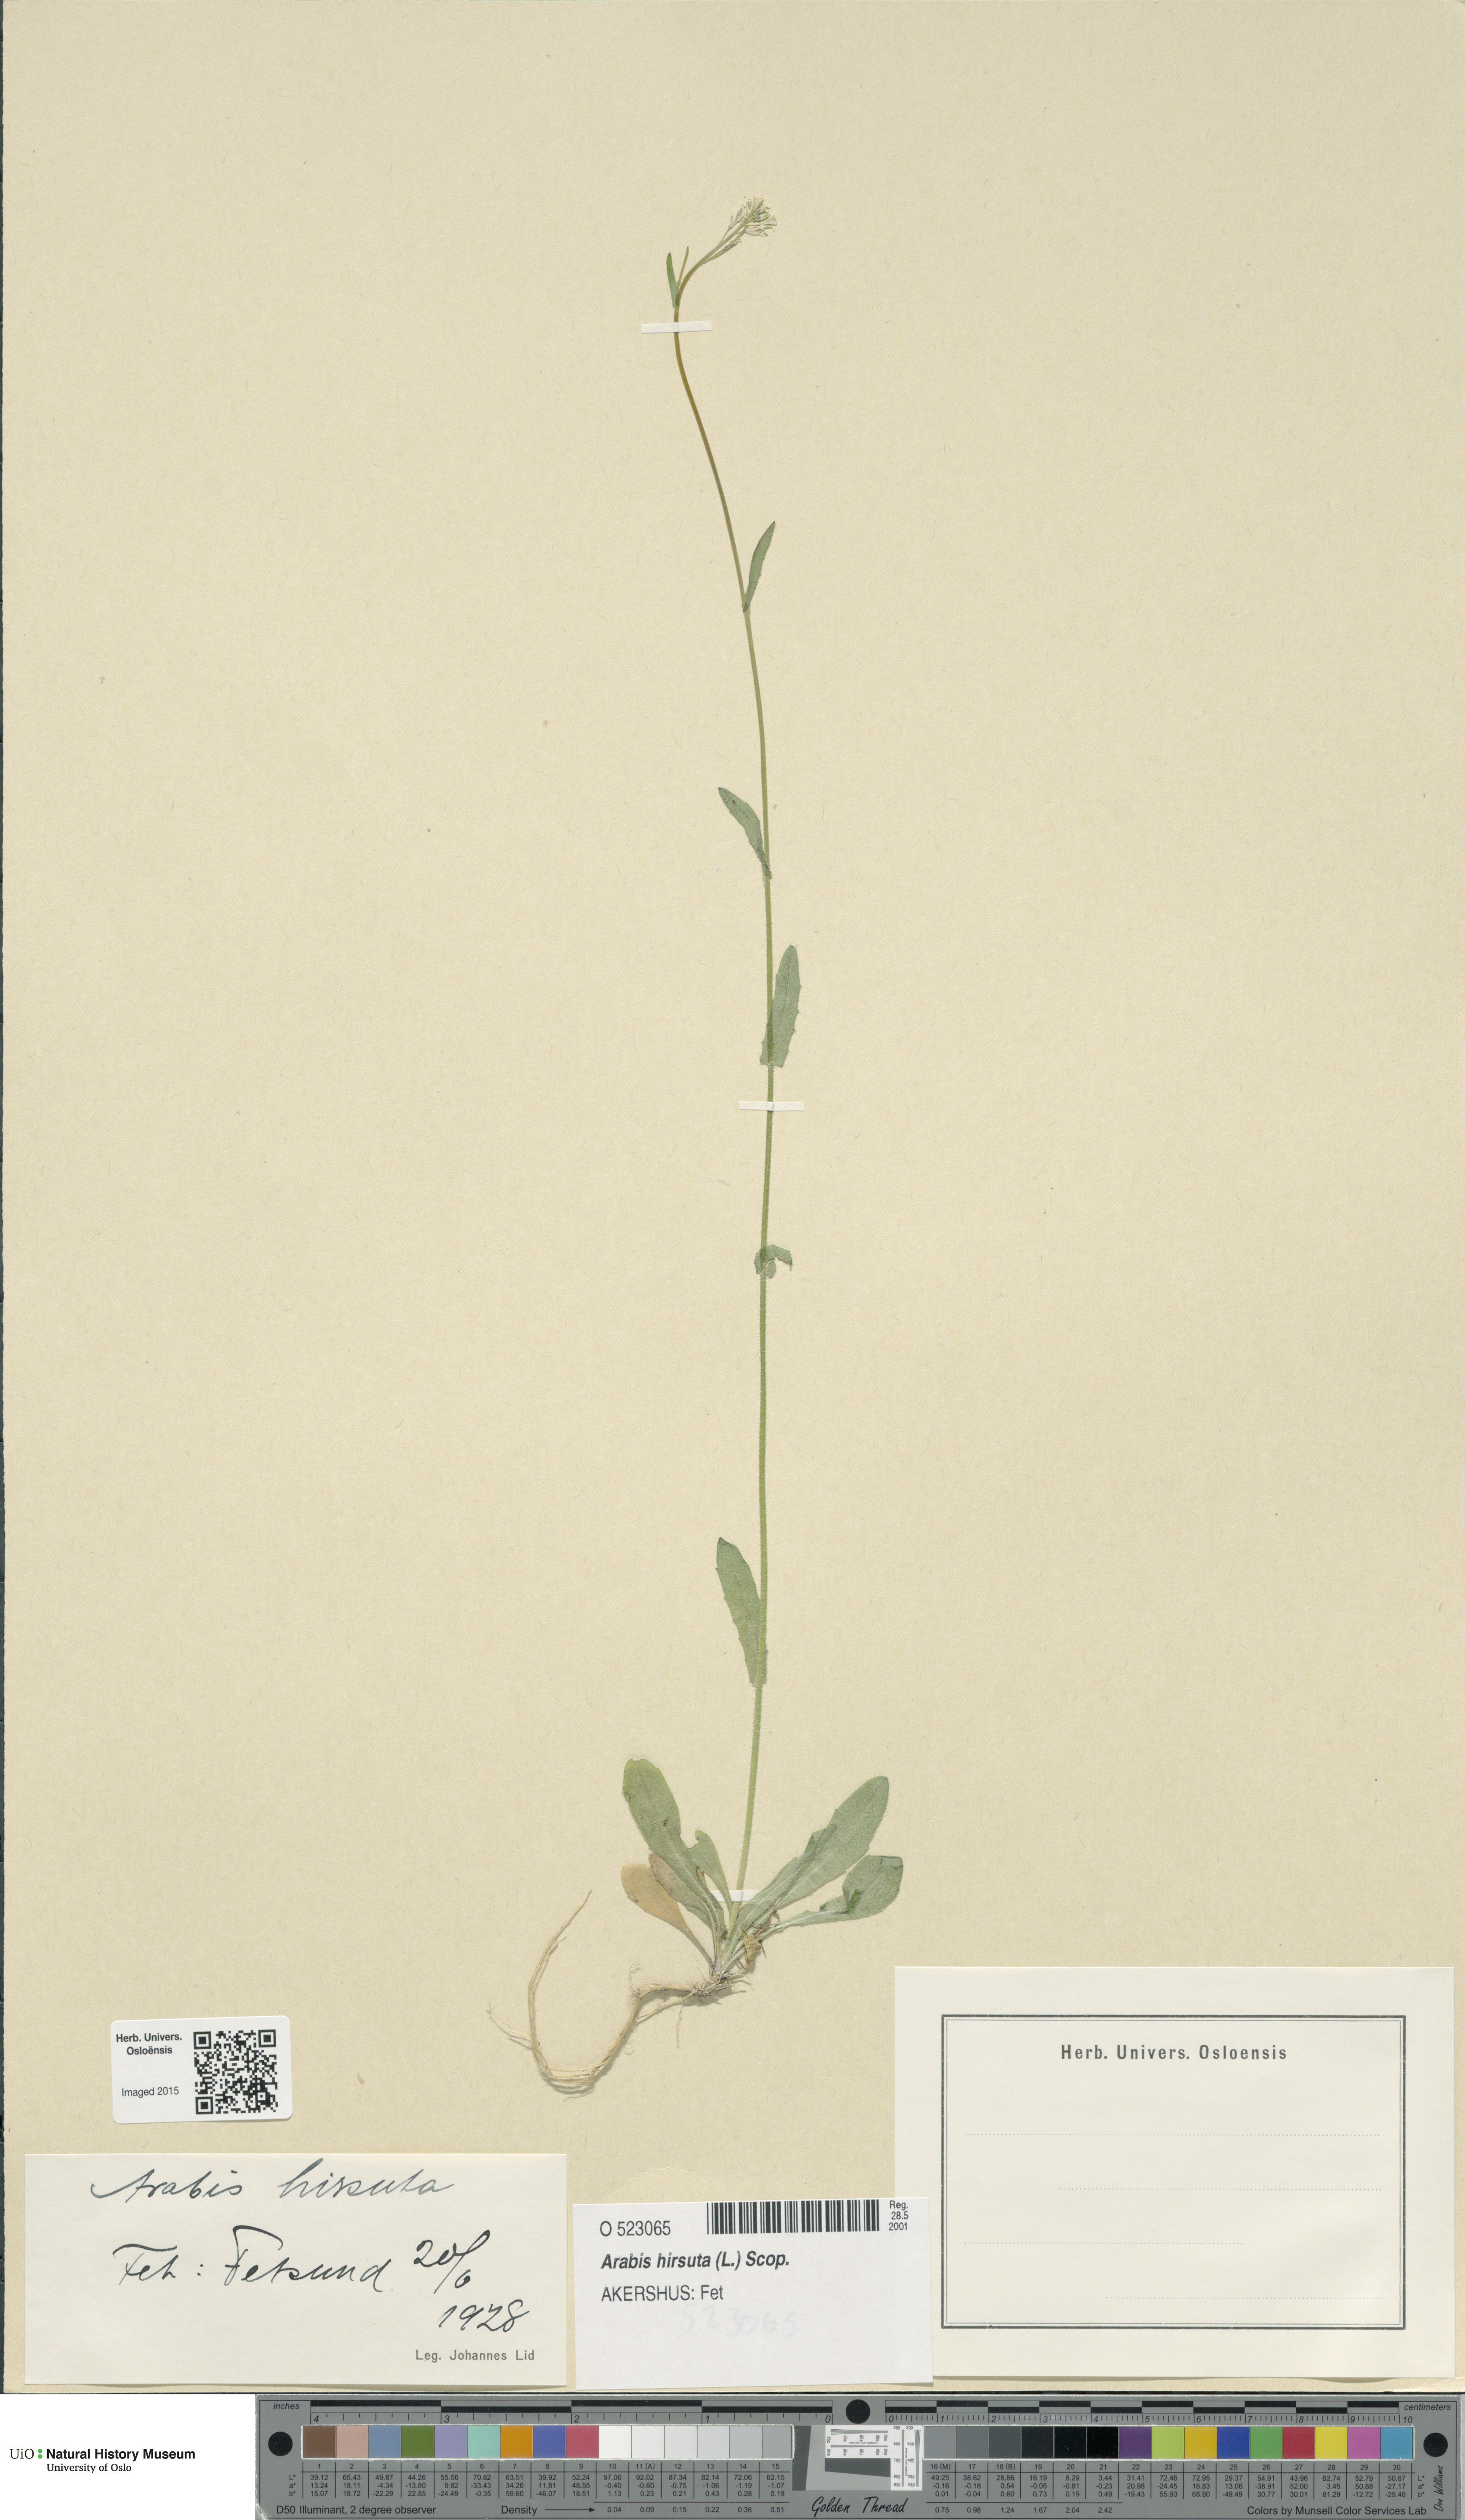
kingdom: Plantae
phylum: Tracheophyta
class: Magnoliopsida
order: Brassicales
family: Brassicaceae
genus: Arabis
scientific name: Arabis hirsuta
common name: Hairy rock-cress
